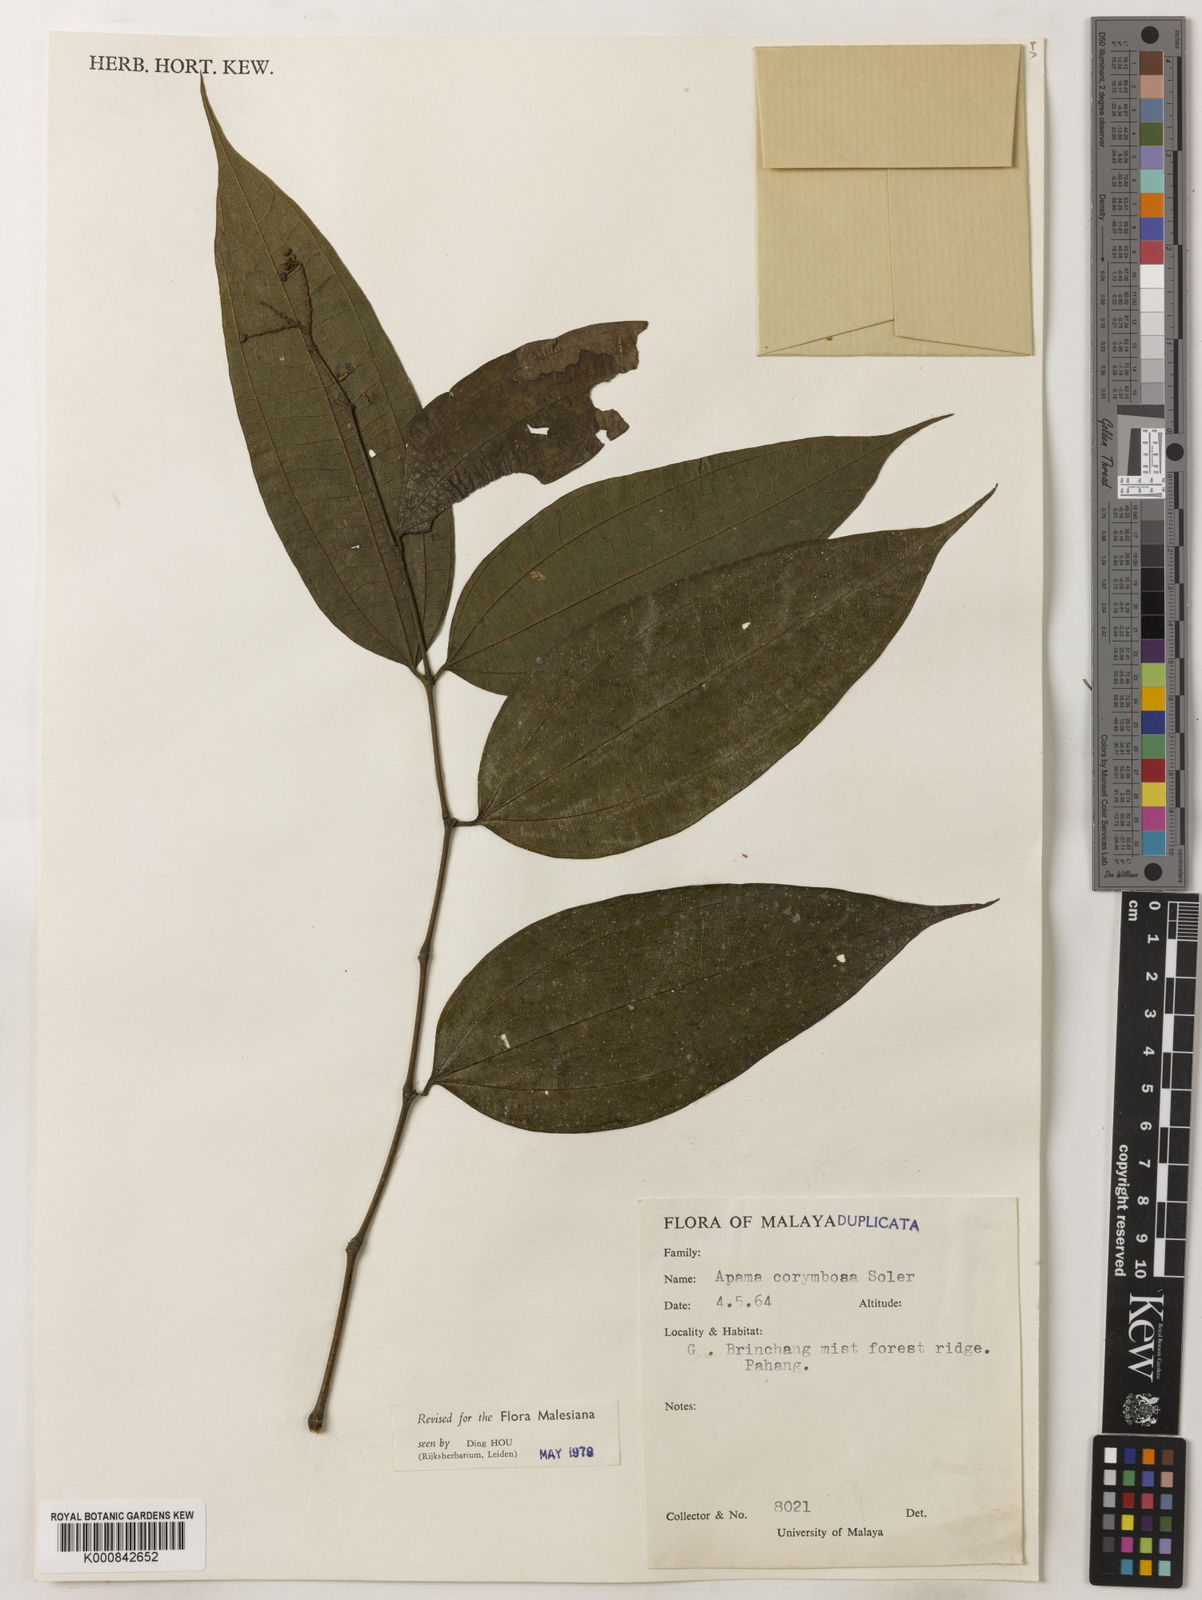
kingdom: Plantae
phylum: Tracheophyta
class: Magnoliopsida
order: Piperales
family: Aristolochiaceae
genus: Thottea
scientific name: Thottea piperiformis
